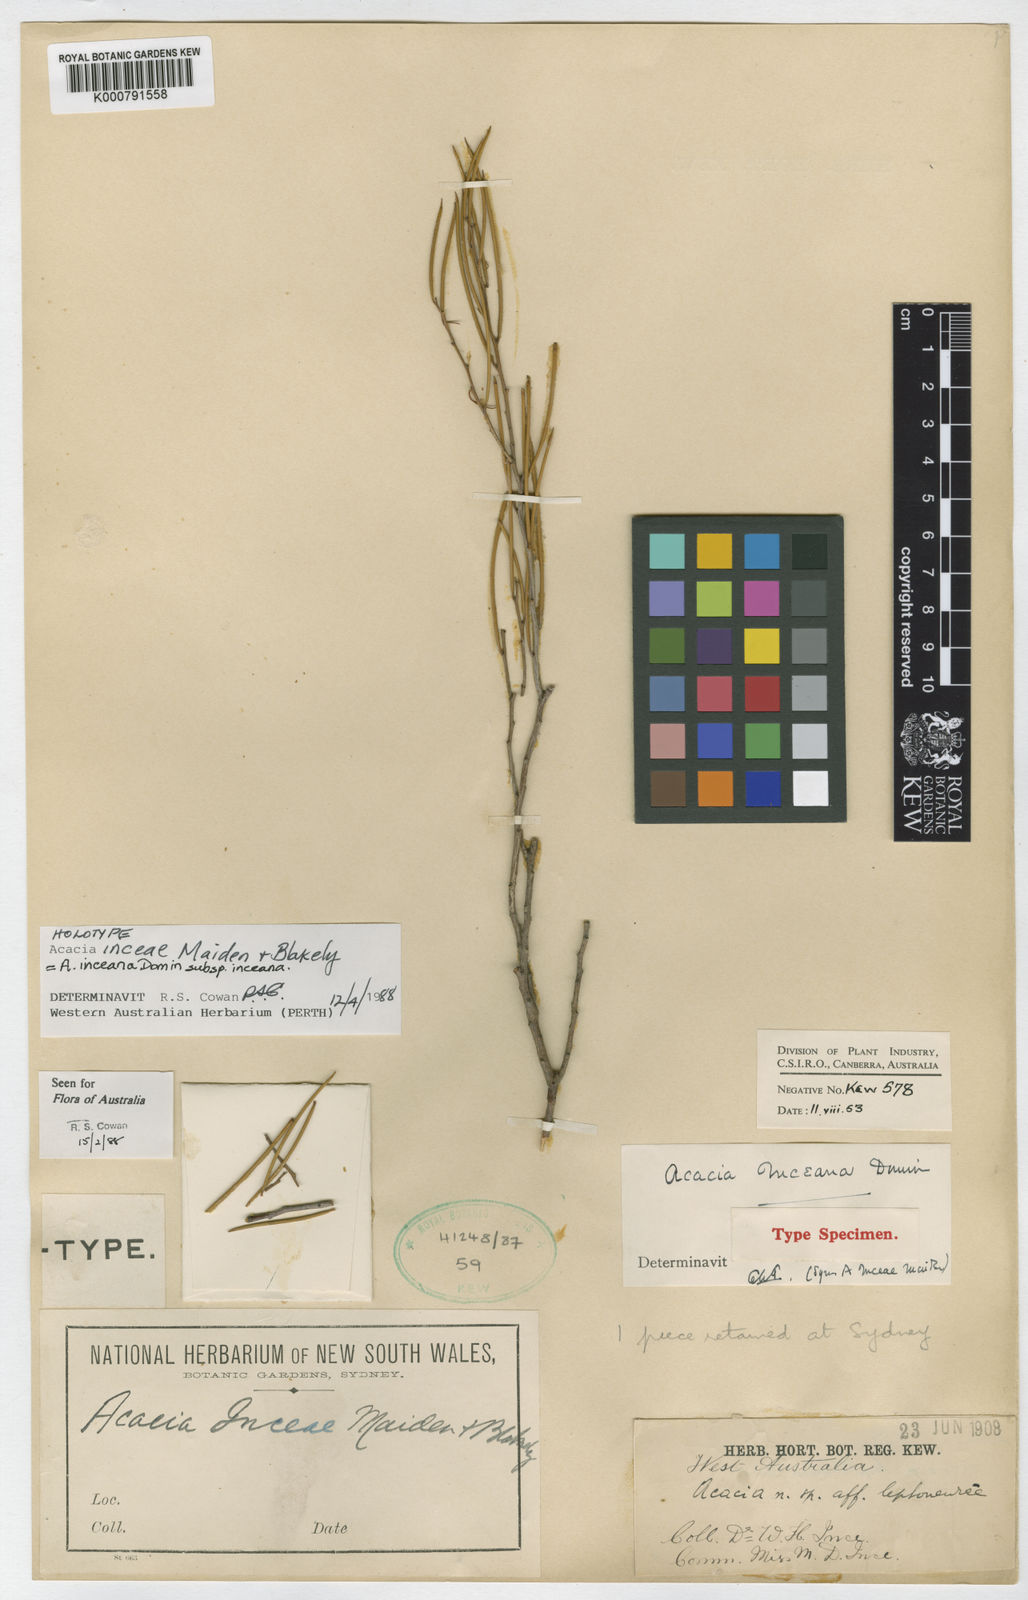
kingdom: Plantae
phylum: Tracheophyta
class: Magnoliopsida
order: Fabales
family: Fabaceae
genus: Acacia
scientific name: Acacia inceana
